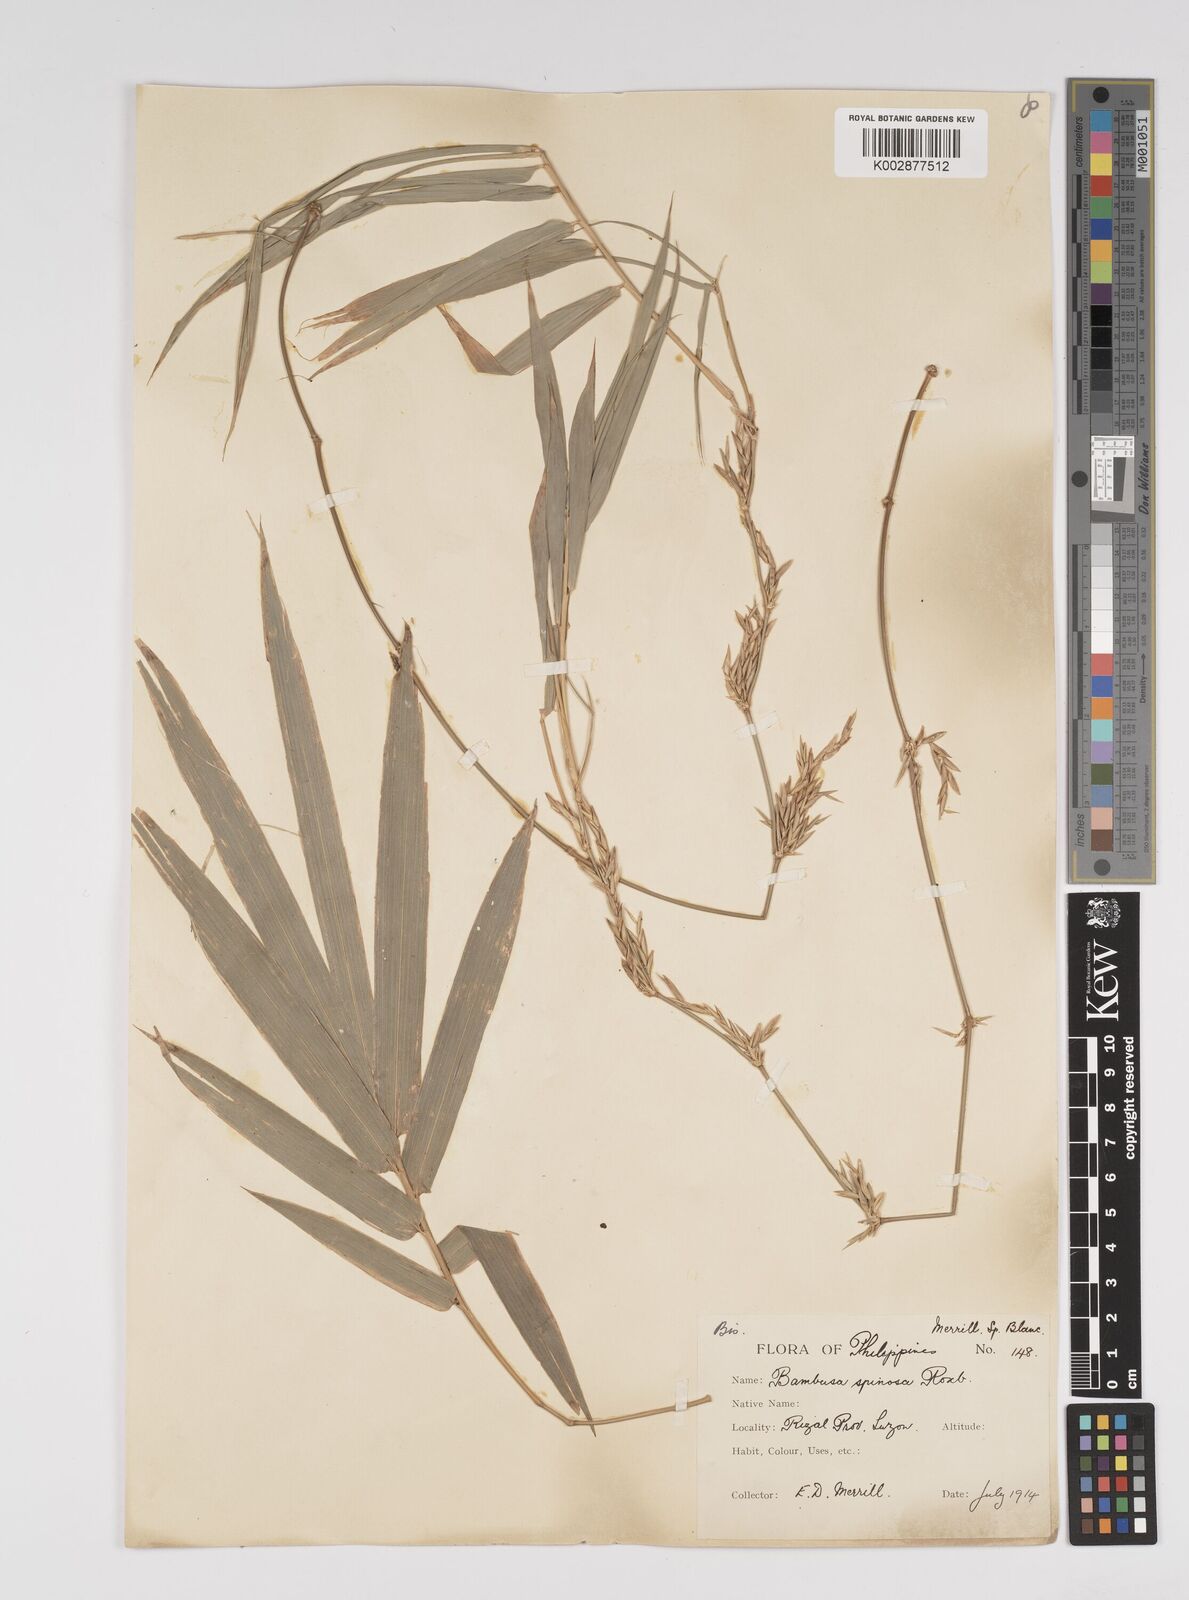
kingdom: Plantae
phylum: Tracheophyta
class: Liliopsida
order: Poales
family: Poaceae
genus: Bambusa
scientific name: Bambusa spinosa
